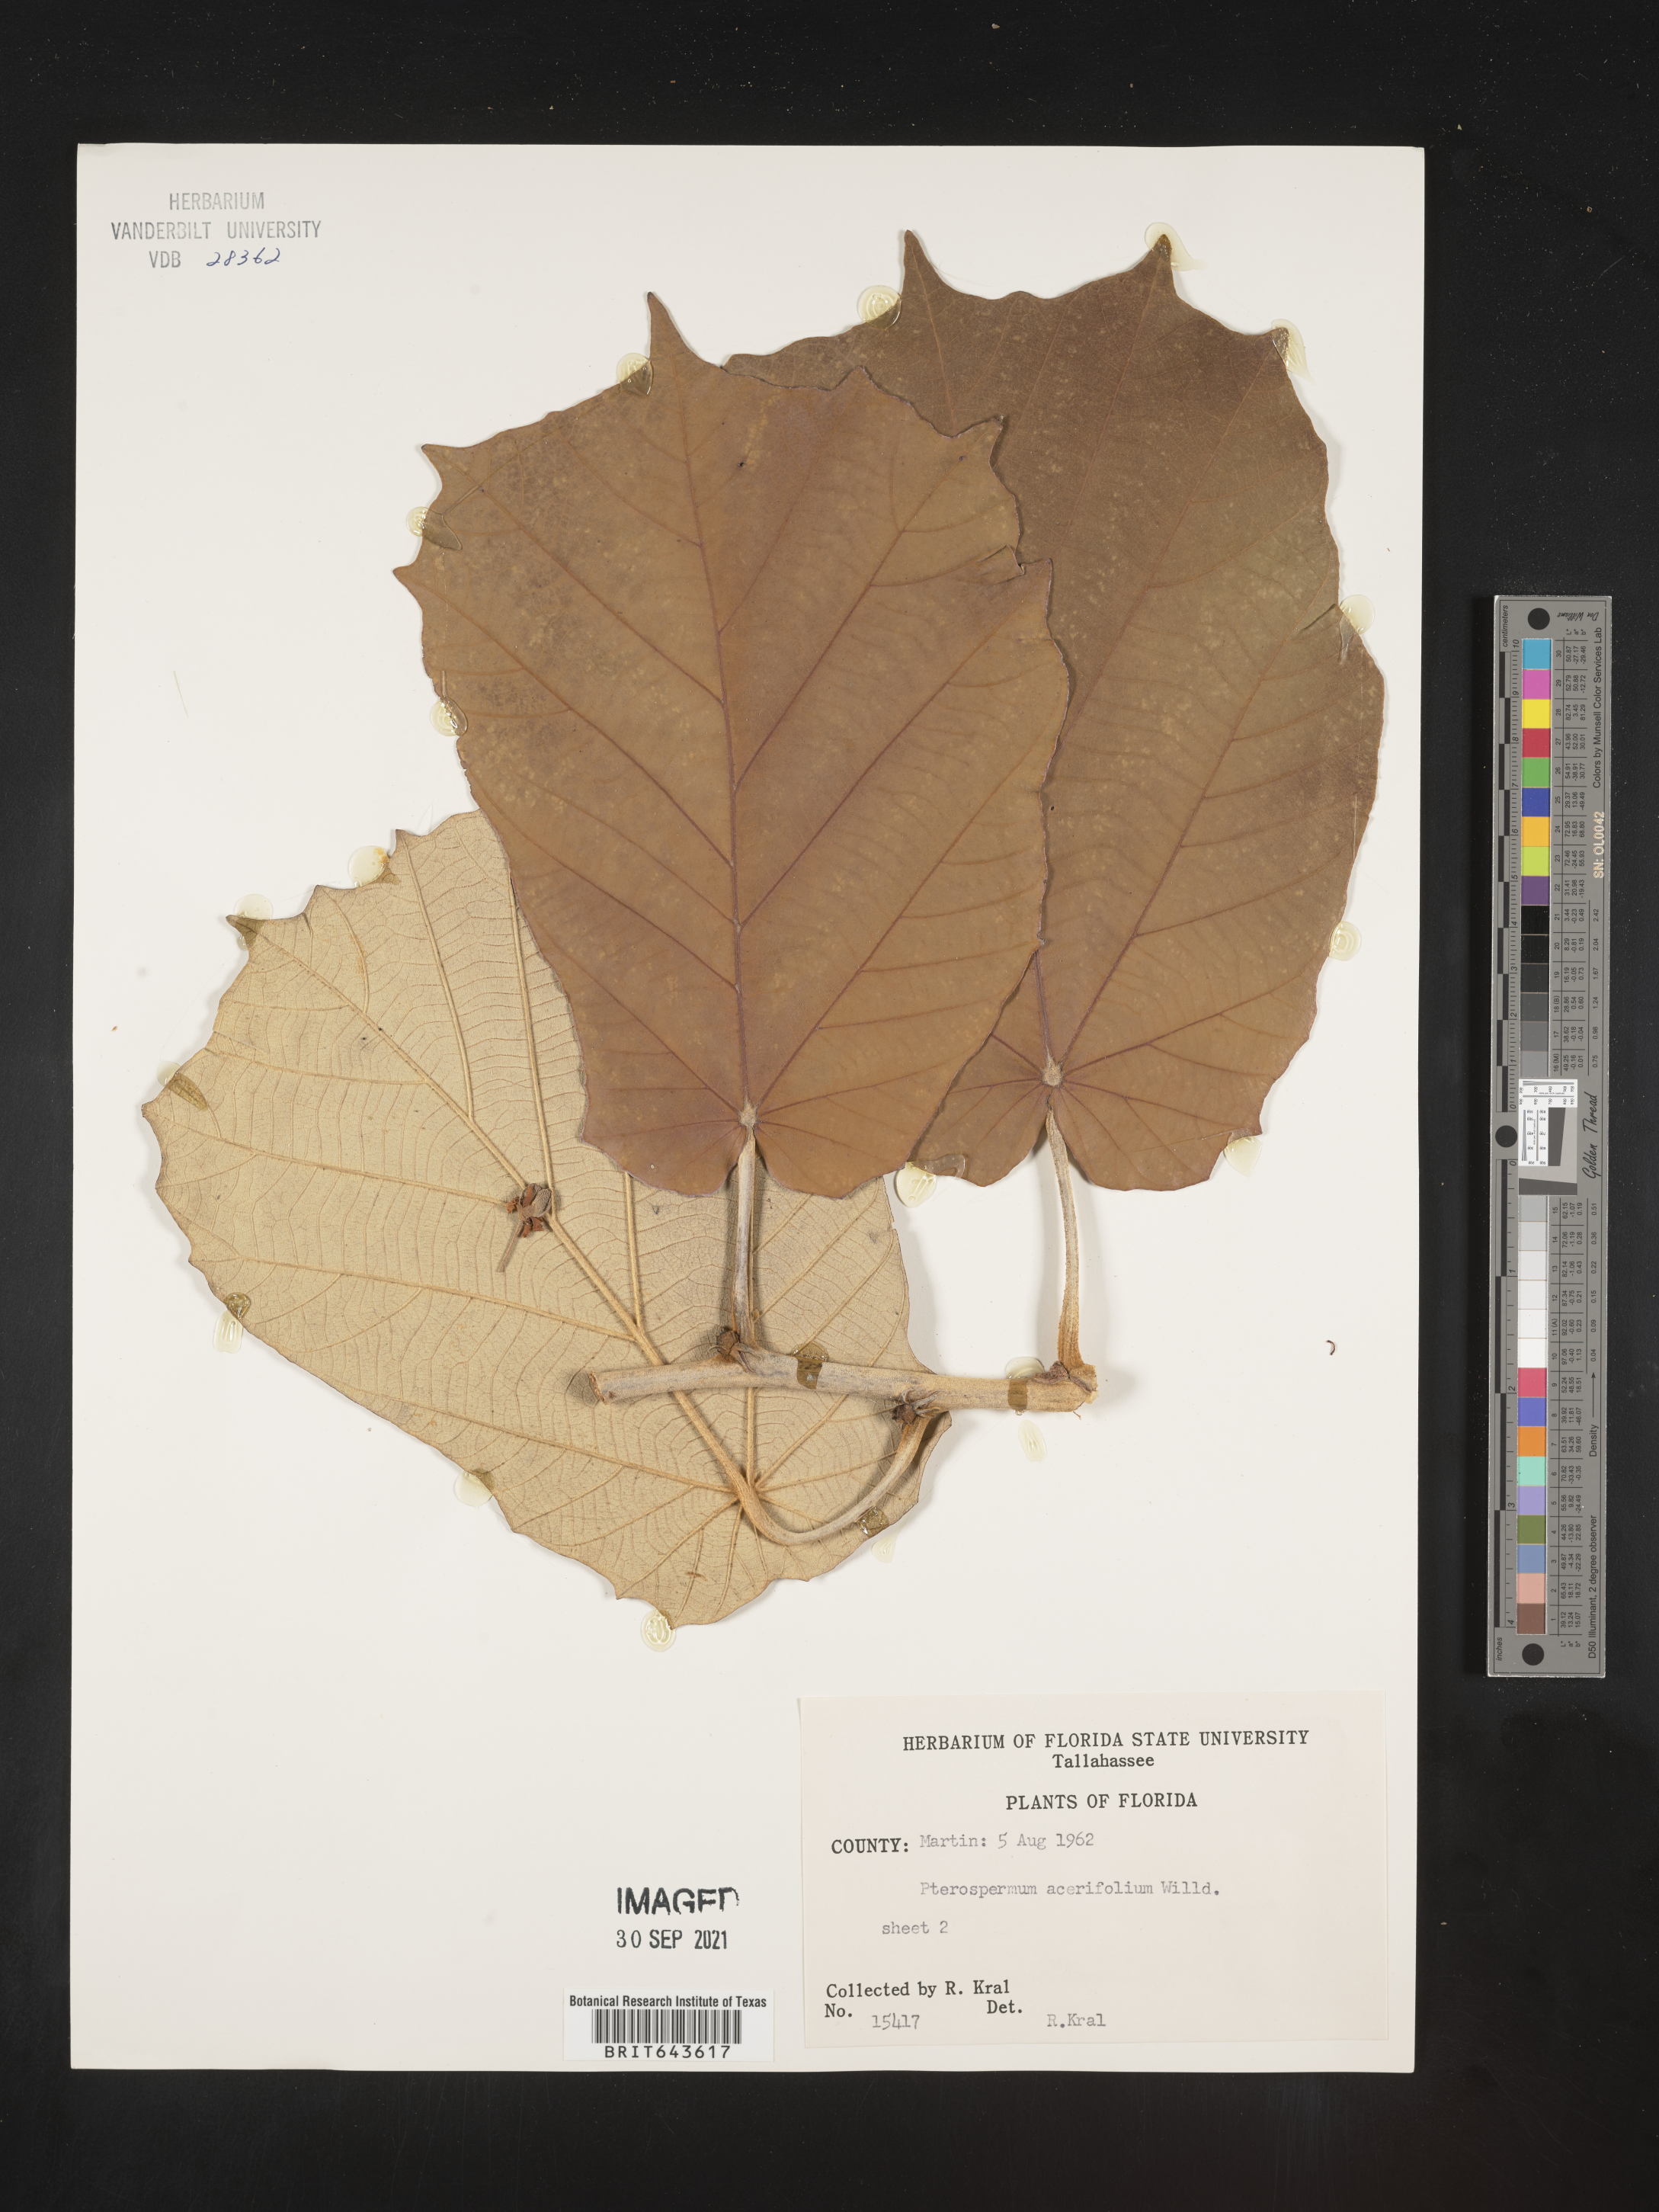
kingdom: Plantae
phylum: Tracheophyta
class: Magnoliopsida
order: Malvales
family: Malvaceae
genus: Pterospermum
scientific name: Pterospermum
